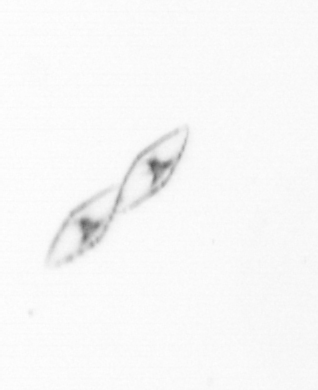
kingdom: Chromista
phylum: Myzozoa
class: Dinophyceae
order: Noctilucales
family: Noctilucaceae
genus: Noctiluca
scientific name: Noctiluca scintillans
